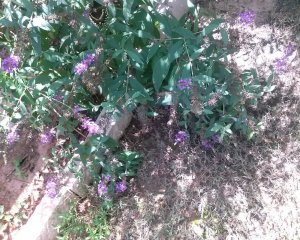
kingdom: Animalia
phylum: Arthropoda
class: Insecta
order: Lepidoptera
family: Papilionidae
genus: Pterourus
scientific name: Pterourus palamedes
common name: Palamedes Swallowtail
